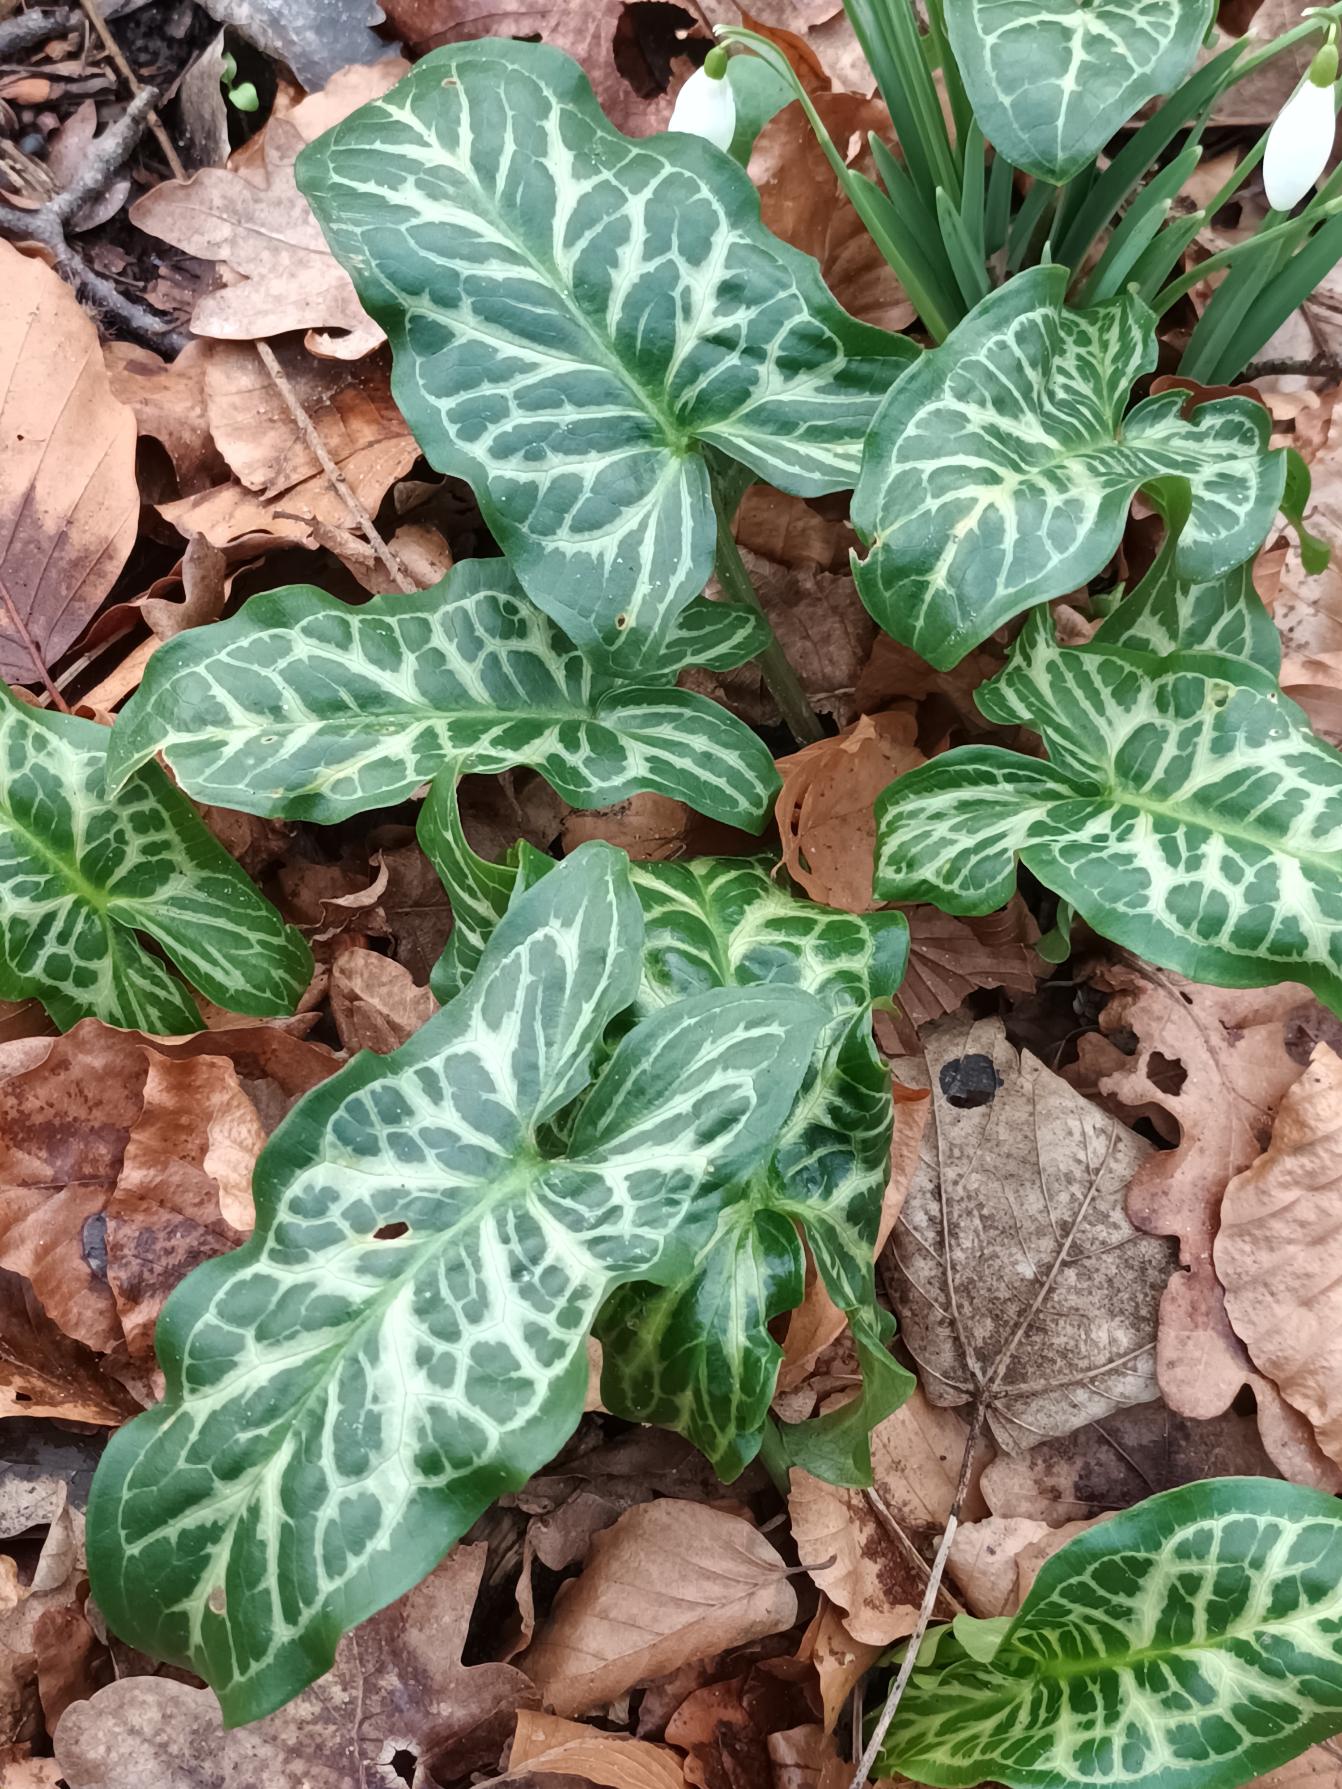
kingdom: Plantae
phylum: Tracheophyta
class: Liliopsida
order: Alismatales
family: Araceae
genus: Arum
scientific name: Arum italicum
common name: Italiensk arum
